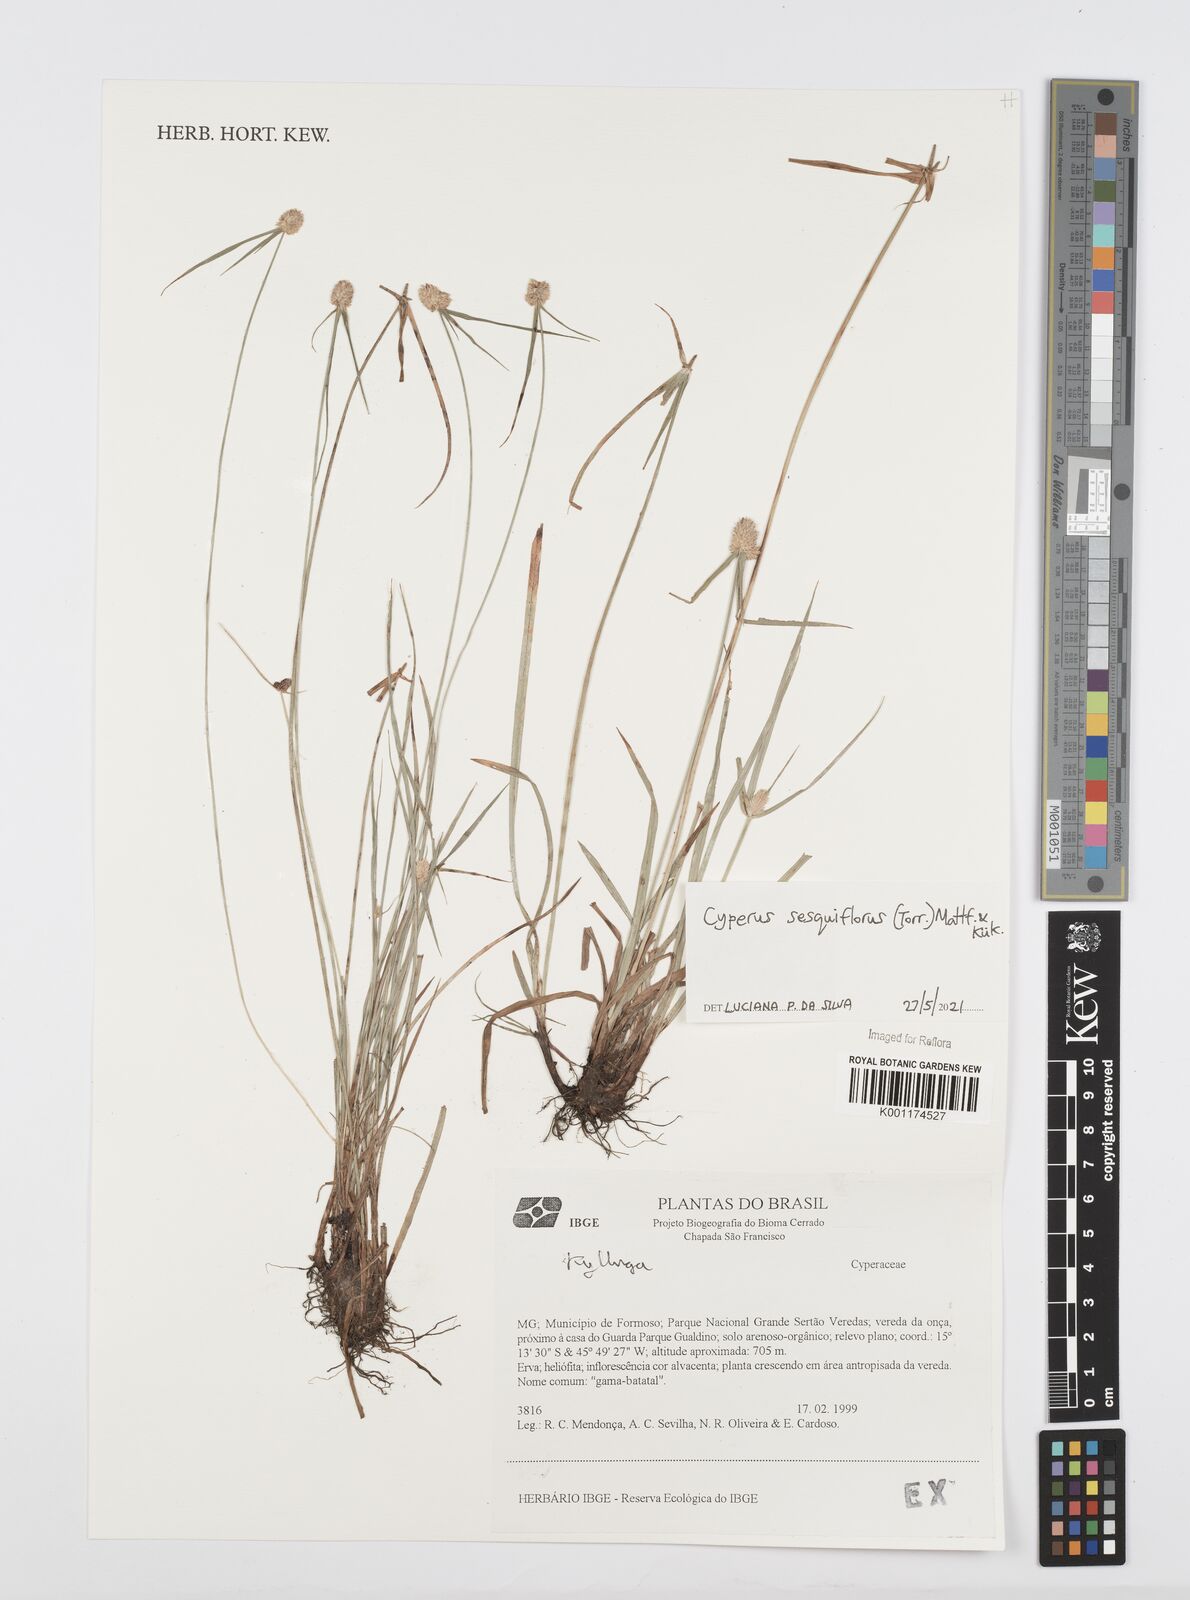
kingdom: Plantae
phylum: Tracheophyta
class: Liliopsida
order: Poales
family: Cyperaceae
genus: Cyperus
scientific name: Cyperus
